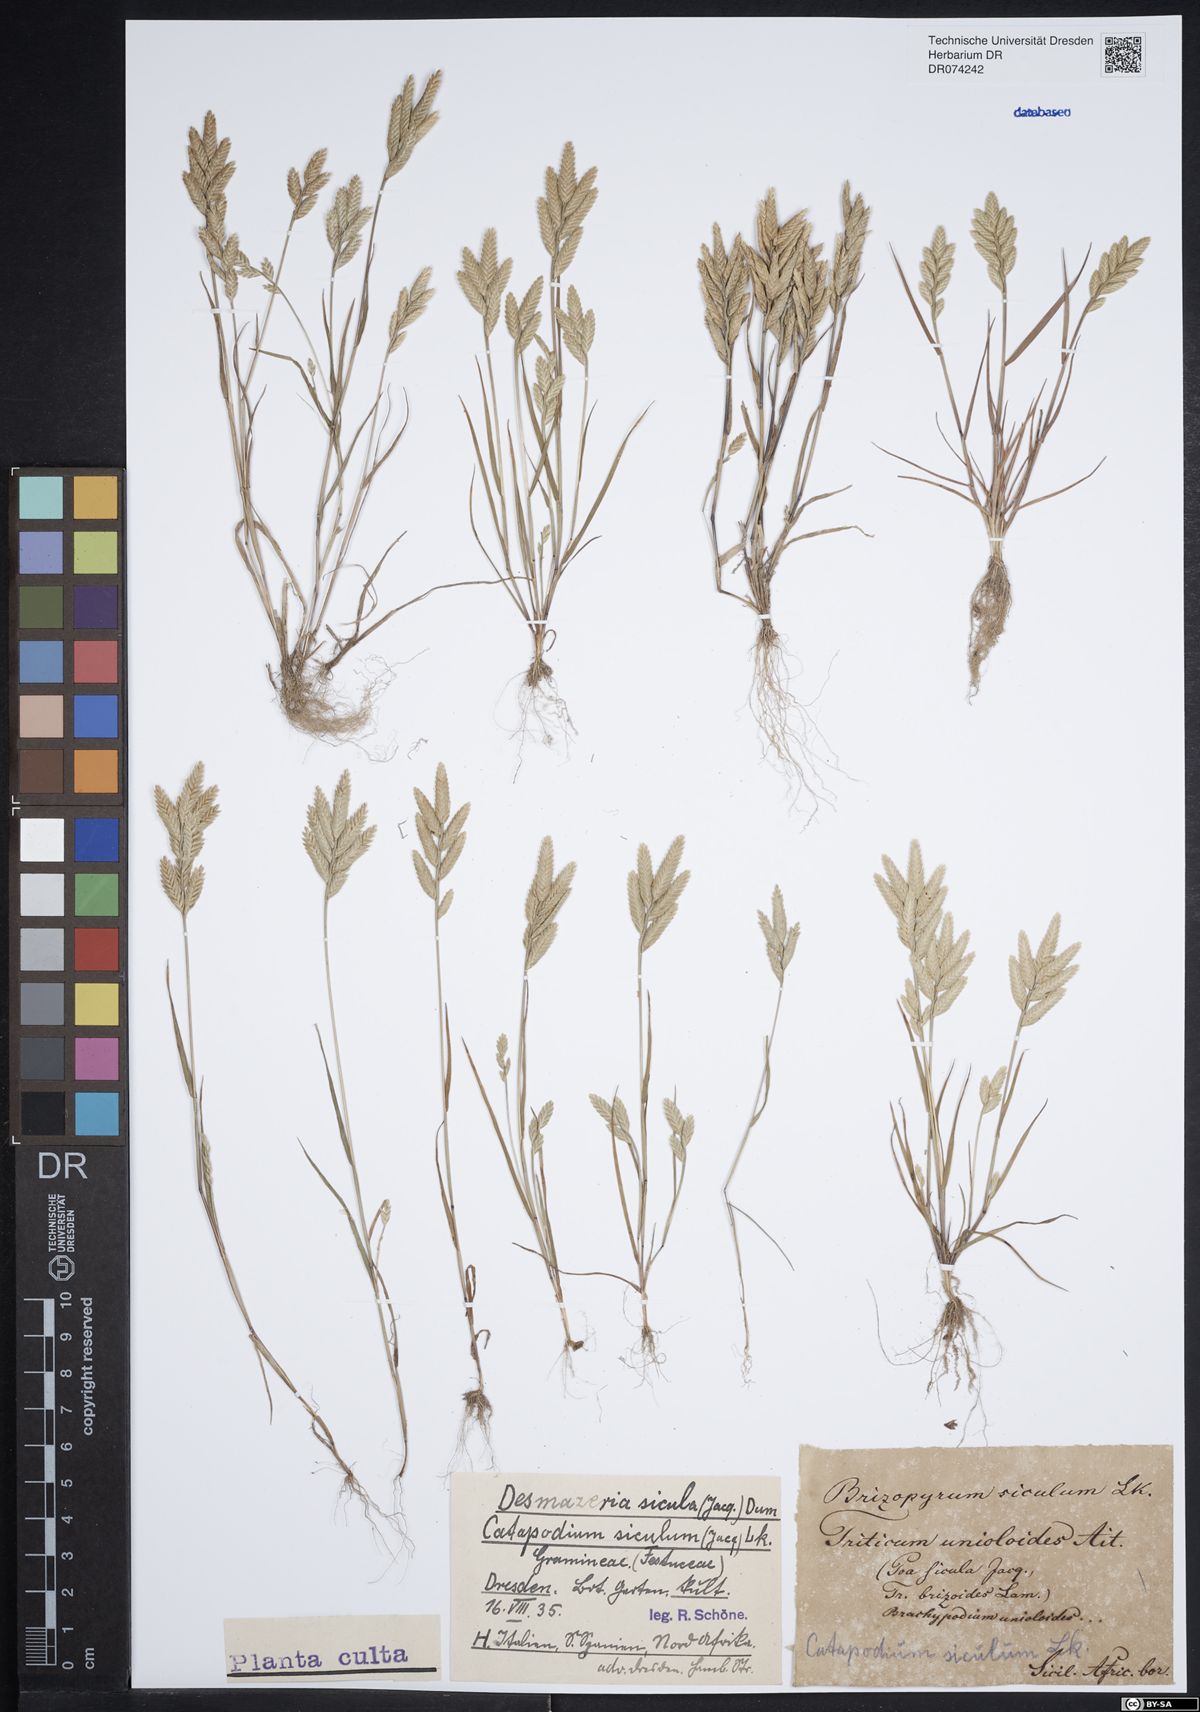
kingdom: Plantae
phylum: Tracheophyta
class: Liliopsida
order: Poales
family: Poaceae
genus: Desmazeria
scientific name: Desmazeria sicula
